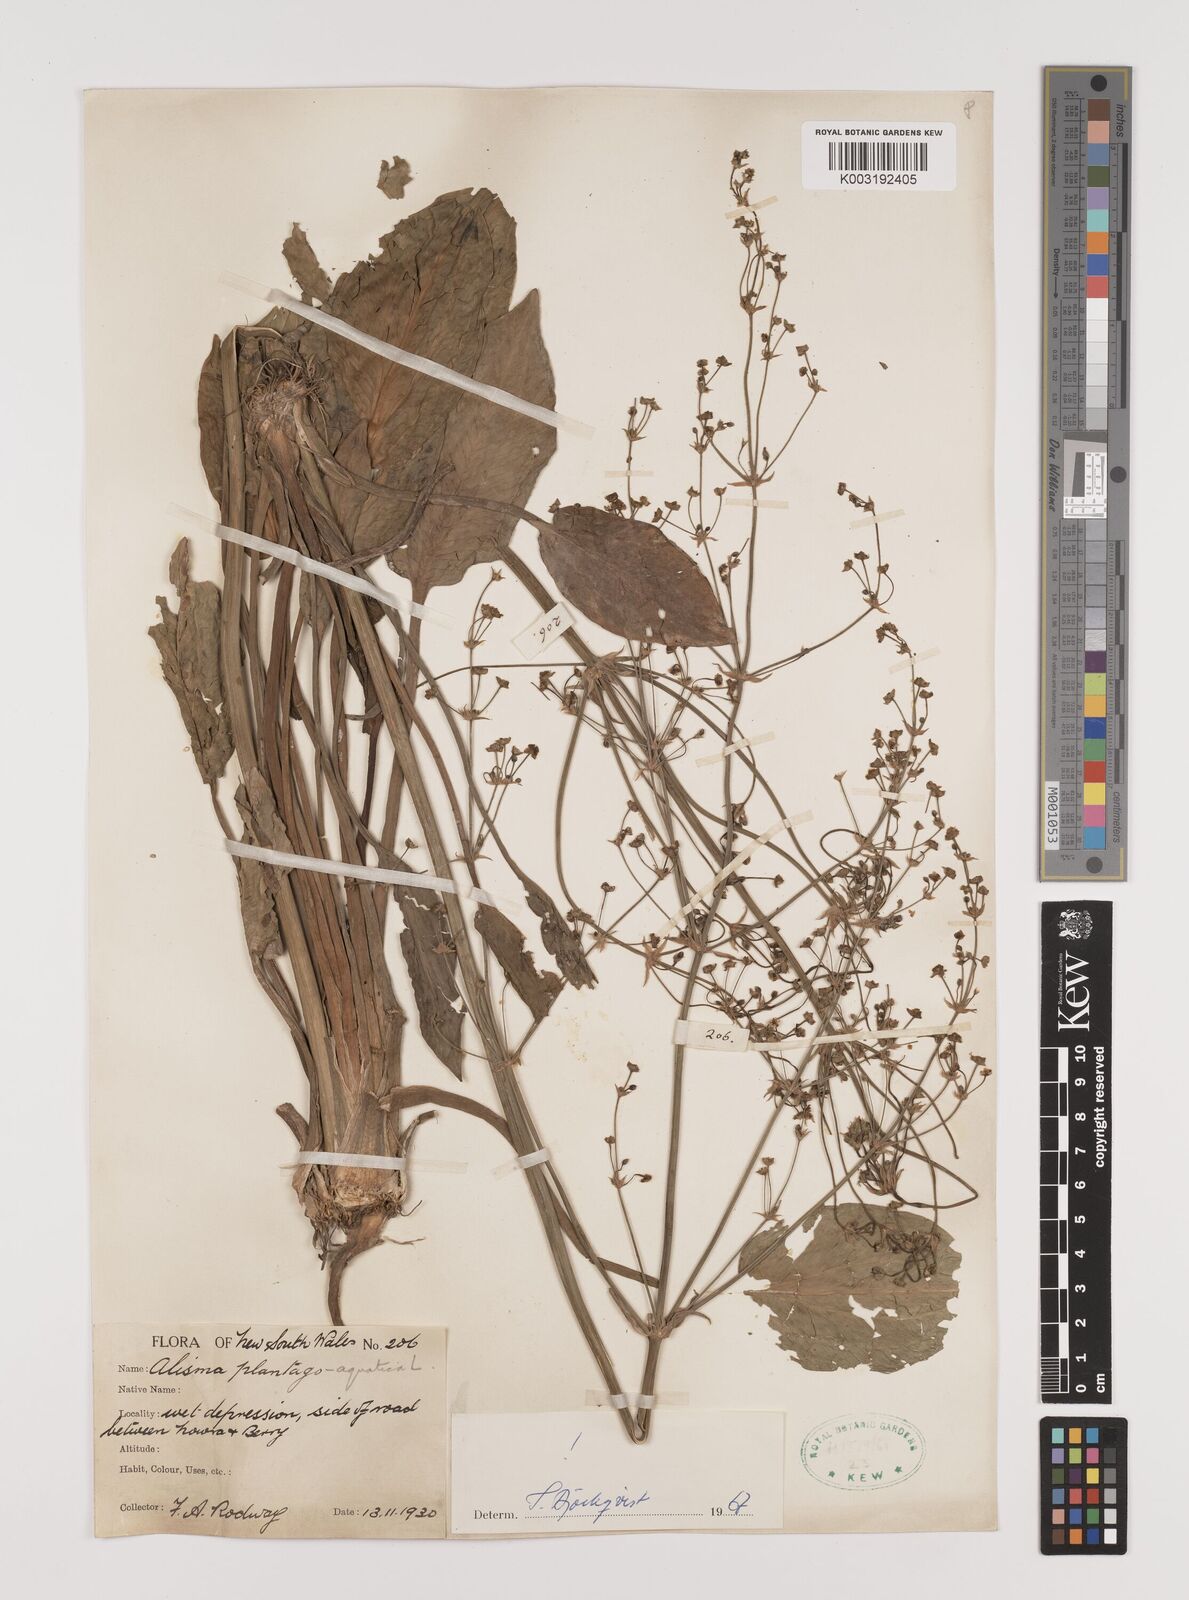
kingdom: Plantae
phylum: Tracheophyta
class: Liliopsida
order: Alismatales
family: Alismataceae
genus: Alisma
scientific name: Alisma plantago-aquatica
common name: Water-plantain
